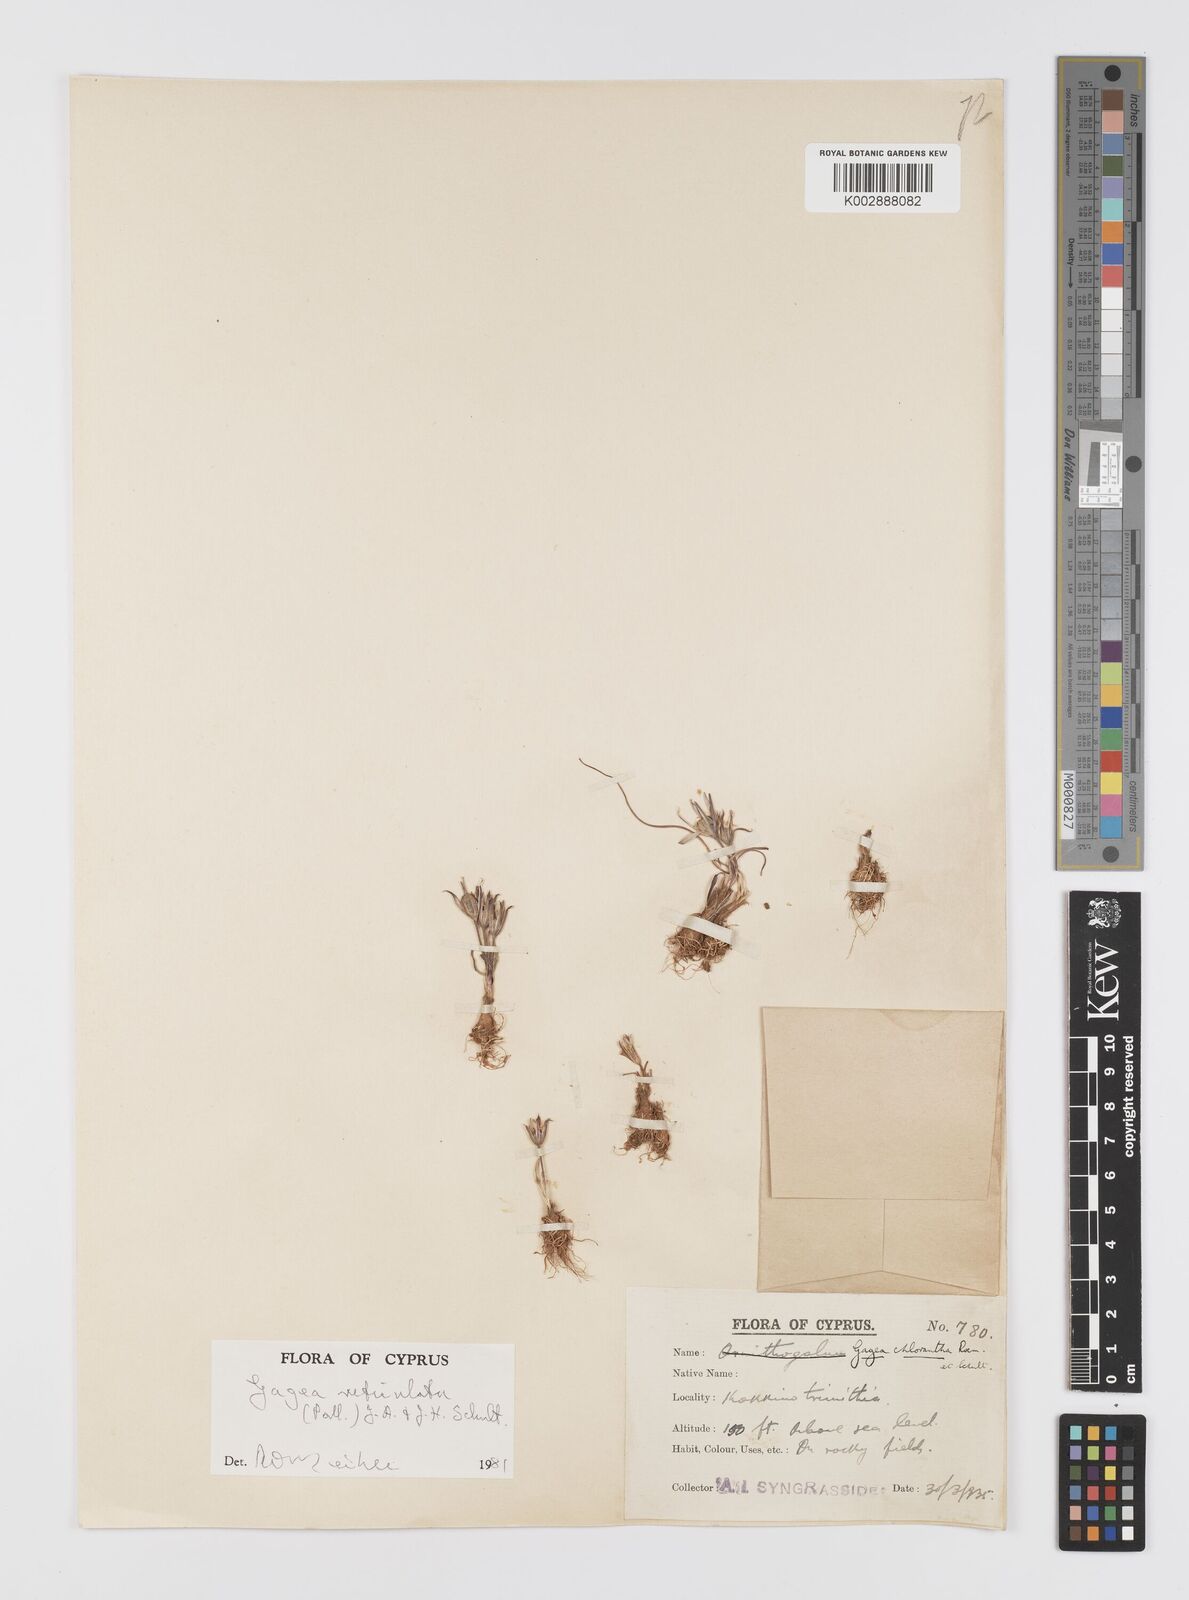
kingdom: Plantae
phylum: Tracheophyta
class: Liliopsida
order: Liliales
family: Liliaceae
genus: Gagea
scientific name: Gagea reticulata
